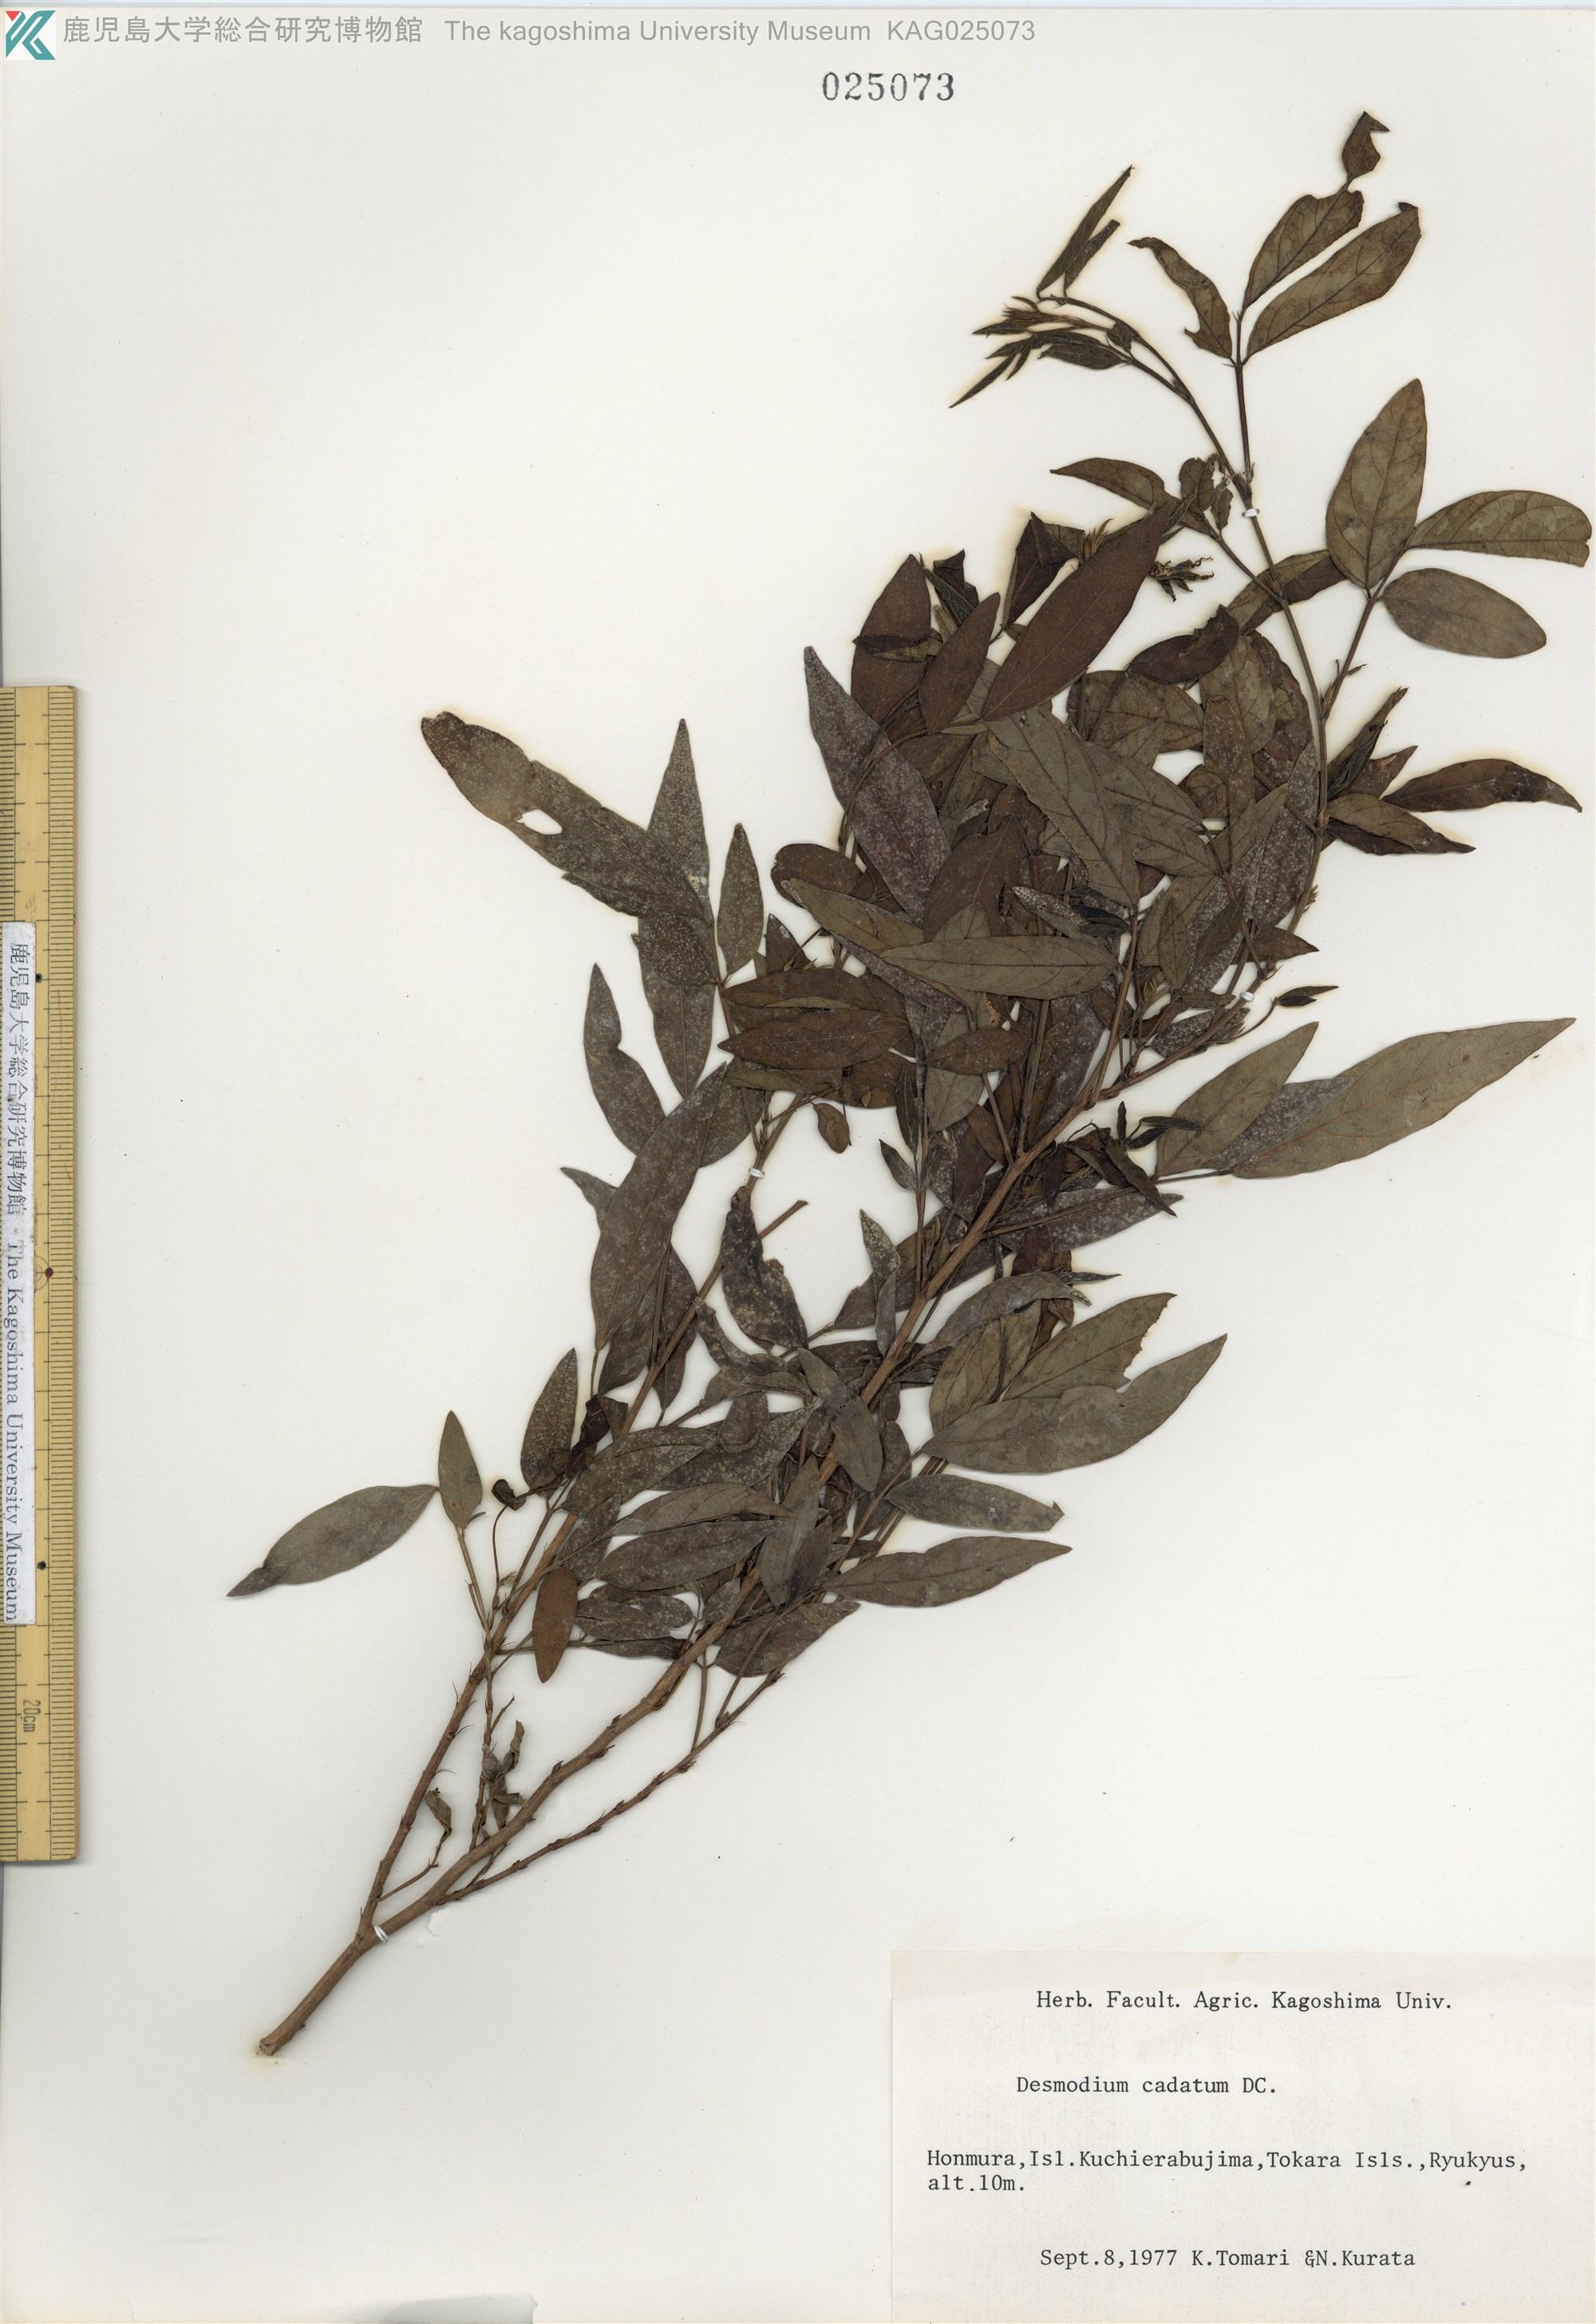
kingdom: Plantae
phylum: Tracheophyta
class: Magnoliopsida
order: Fabales
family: Fabaceae
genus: Ohwia
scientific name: Ohwia caudata
